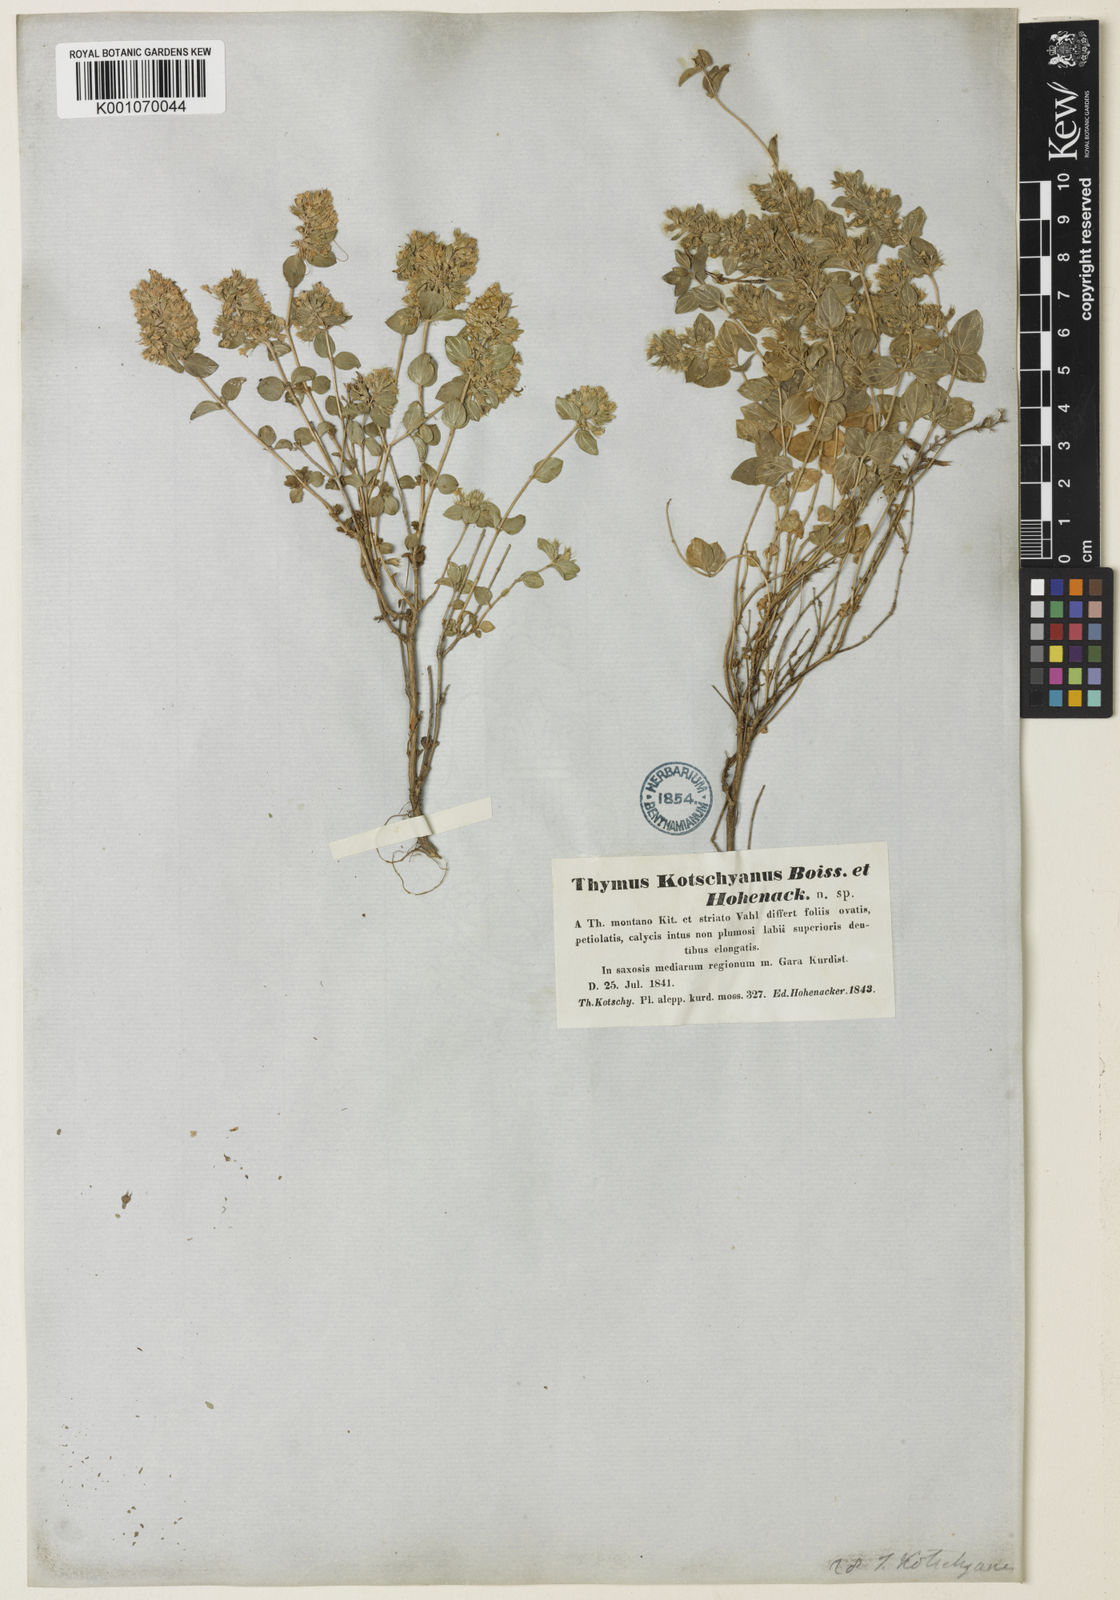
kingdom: Plantae
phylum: Tracheophyta
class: Magnoliopsida
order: Lamiales
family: Lamiaceae
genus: Thymus
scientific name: Thymus serpyllum
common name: Breckland thyme
